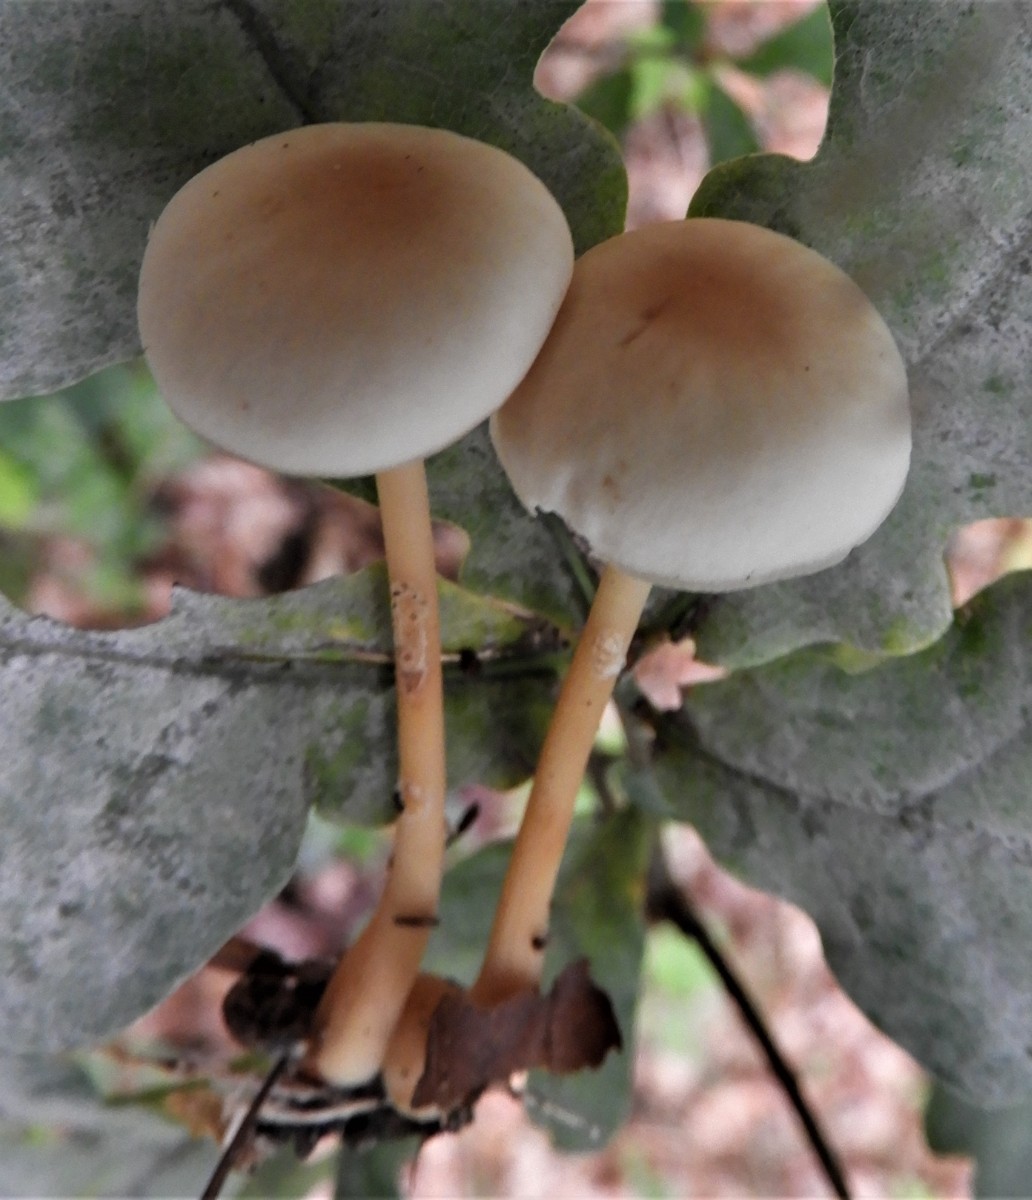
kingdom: Fungi
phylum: Basidiomycota
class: Agaricomycetes
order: Agaricales
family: Omphalotaceae
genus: Gymnopus
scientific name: Gymnopus
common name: fladhat
